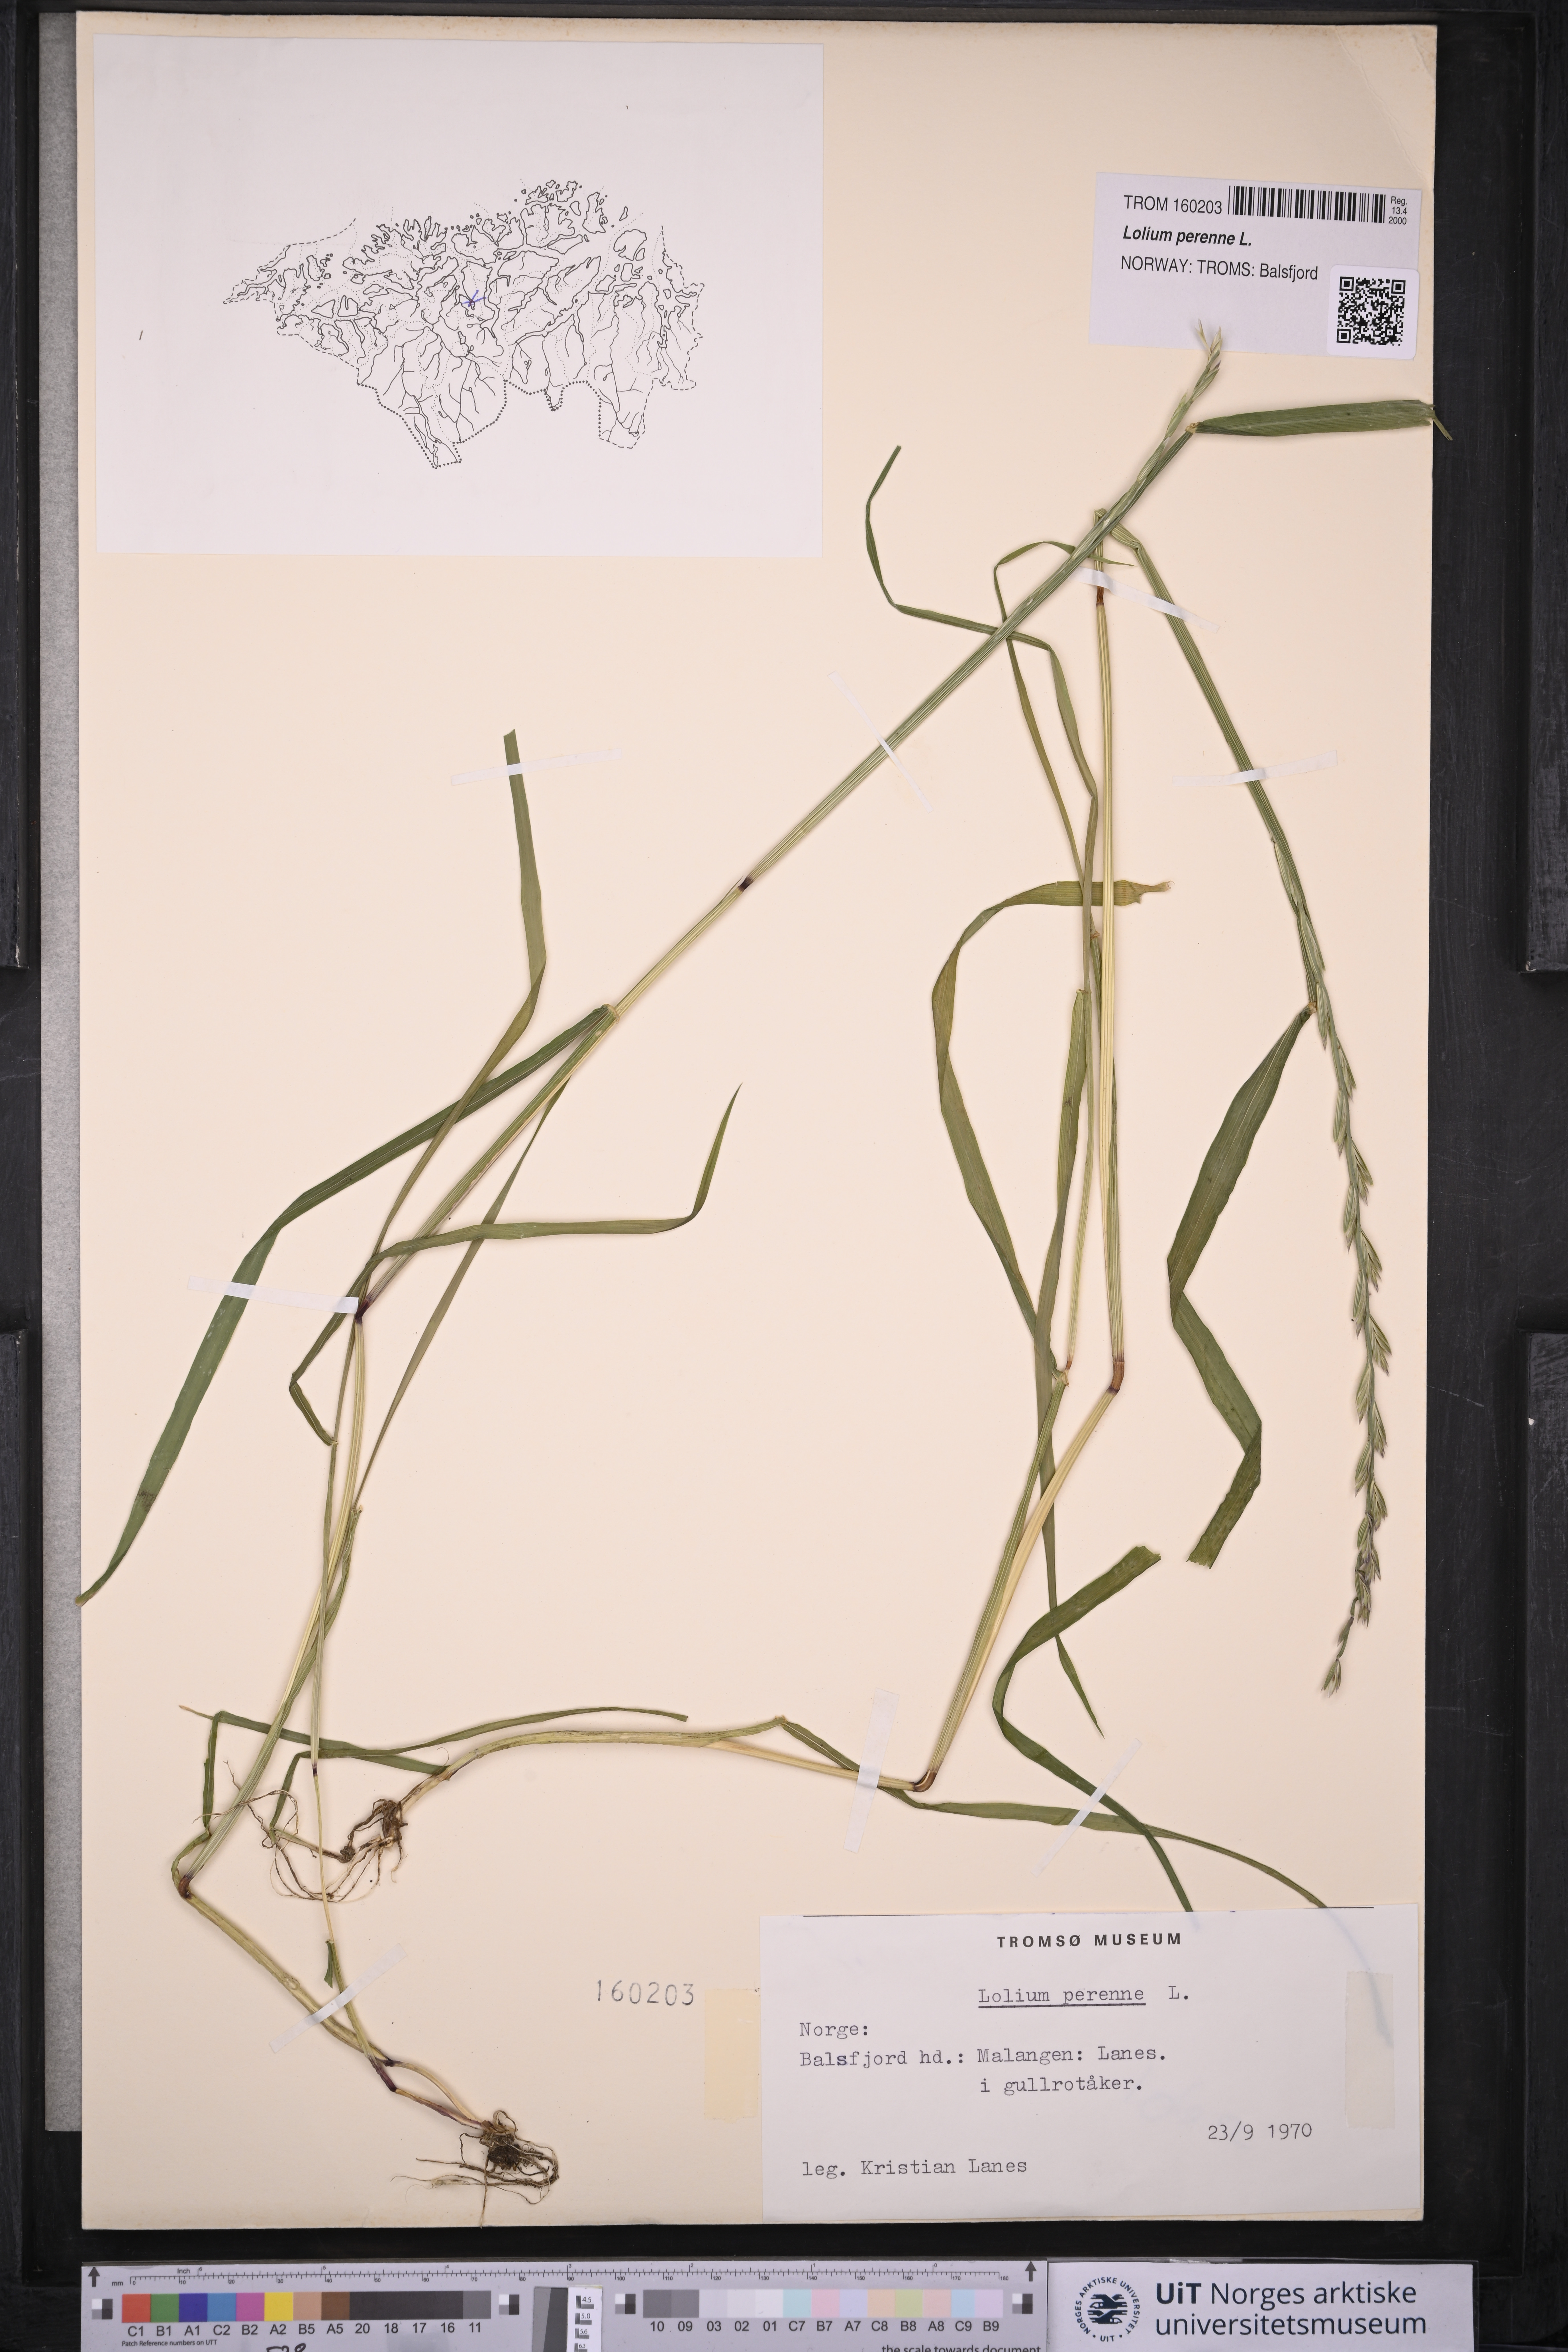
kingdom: Plantae
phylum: Tracheophyta
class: Liliopsida
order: Poales
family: Poaceae
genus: Lolium
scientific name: Lolium perenne
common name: Perennial ryegrass
